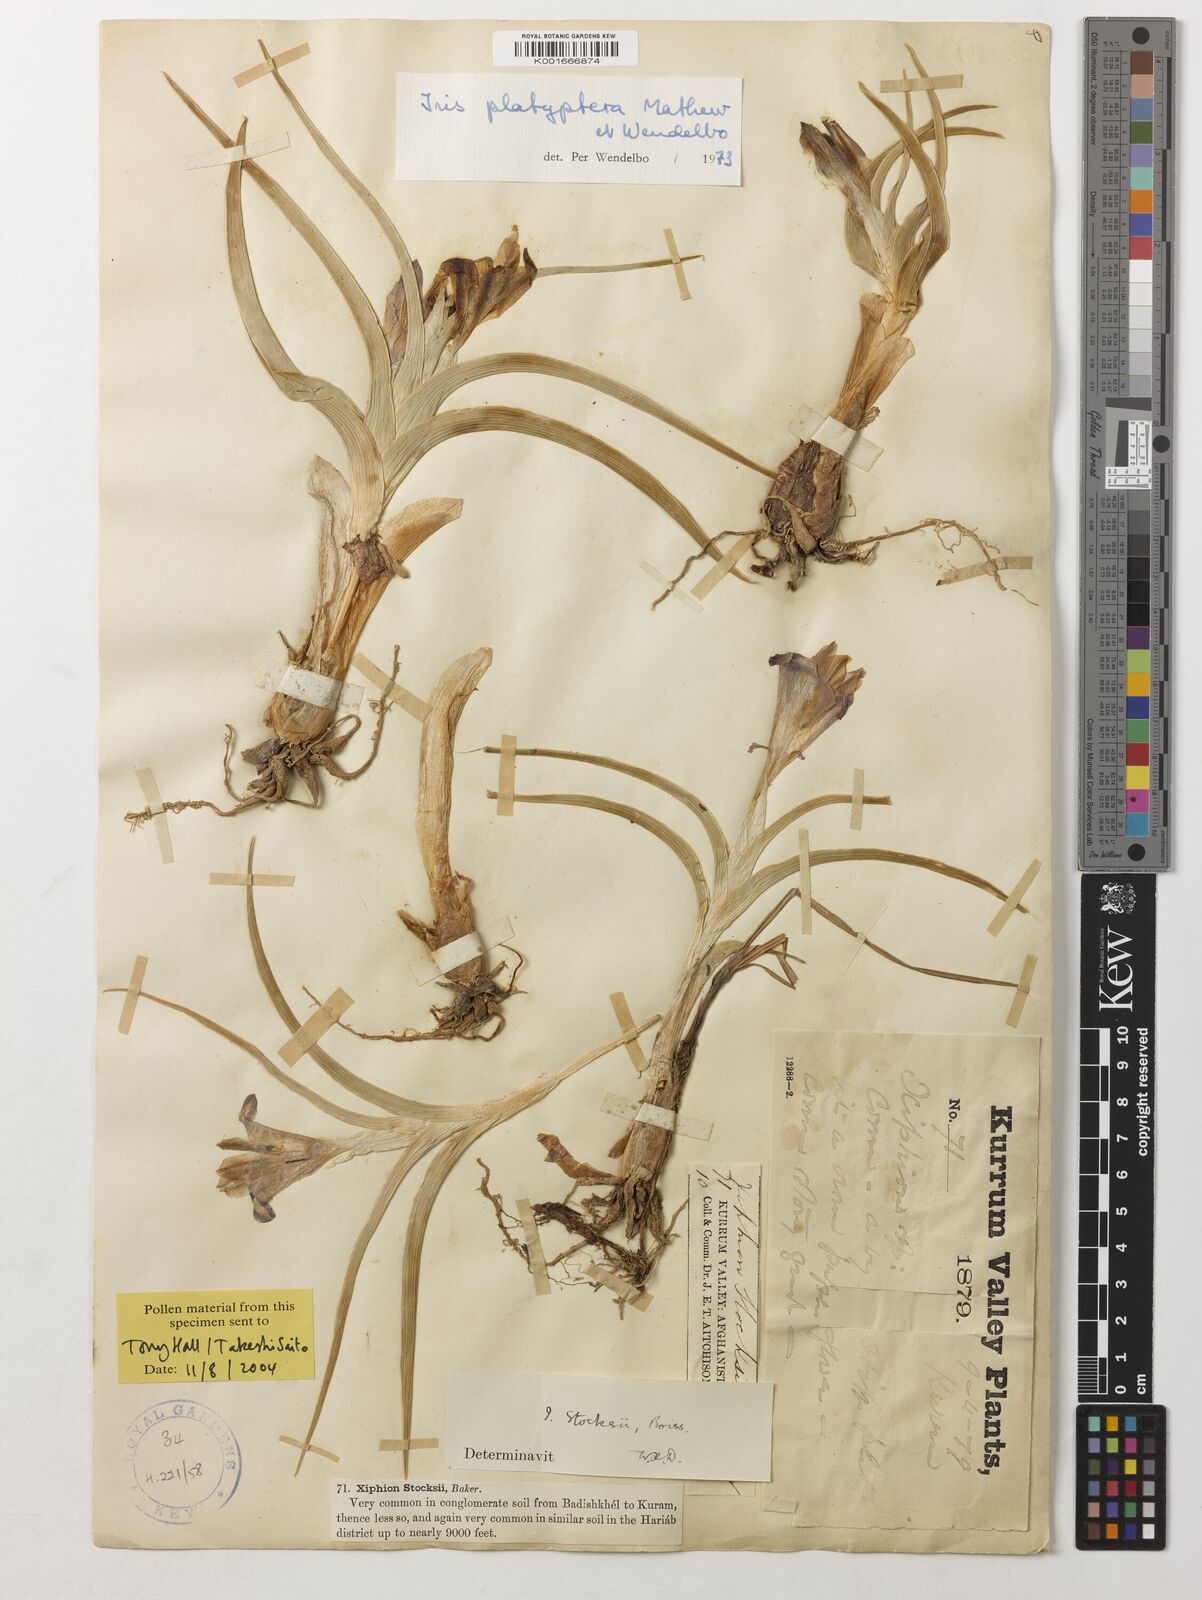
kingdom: Plantae
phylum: Tracheophyta
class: Liliopsida
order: Asparagales
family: Iridaceae
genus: Iris
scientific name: Iris platyptera
